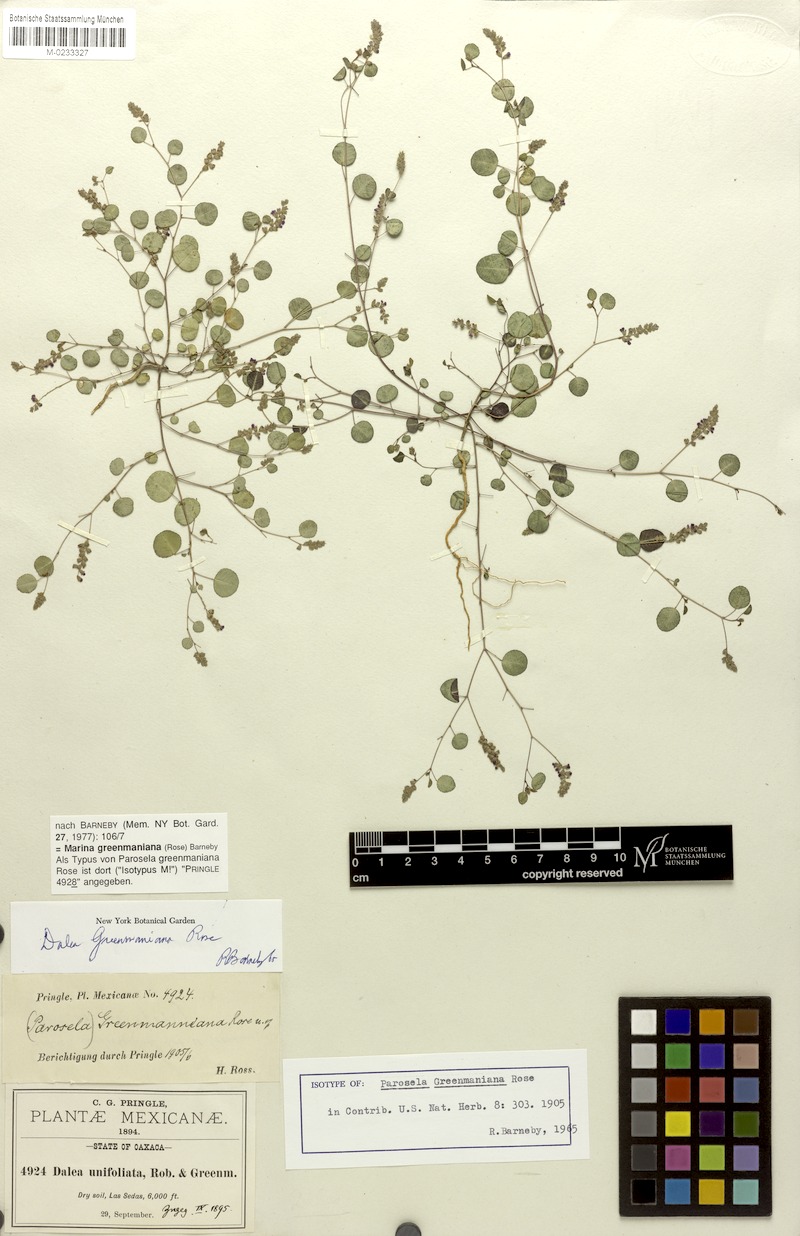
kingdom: Plantae
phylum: Tracheophyta
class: Magnoliopsida
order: Fabales
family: Fabaceae
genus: Marina
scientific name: Marina greenmaniana
